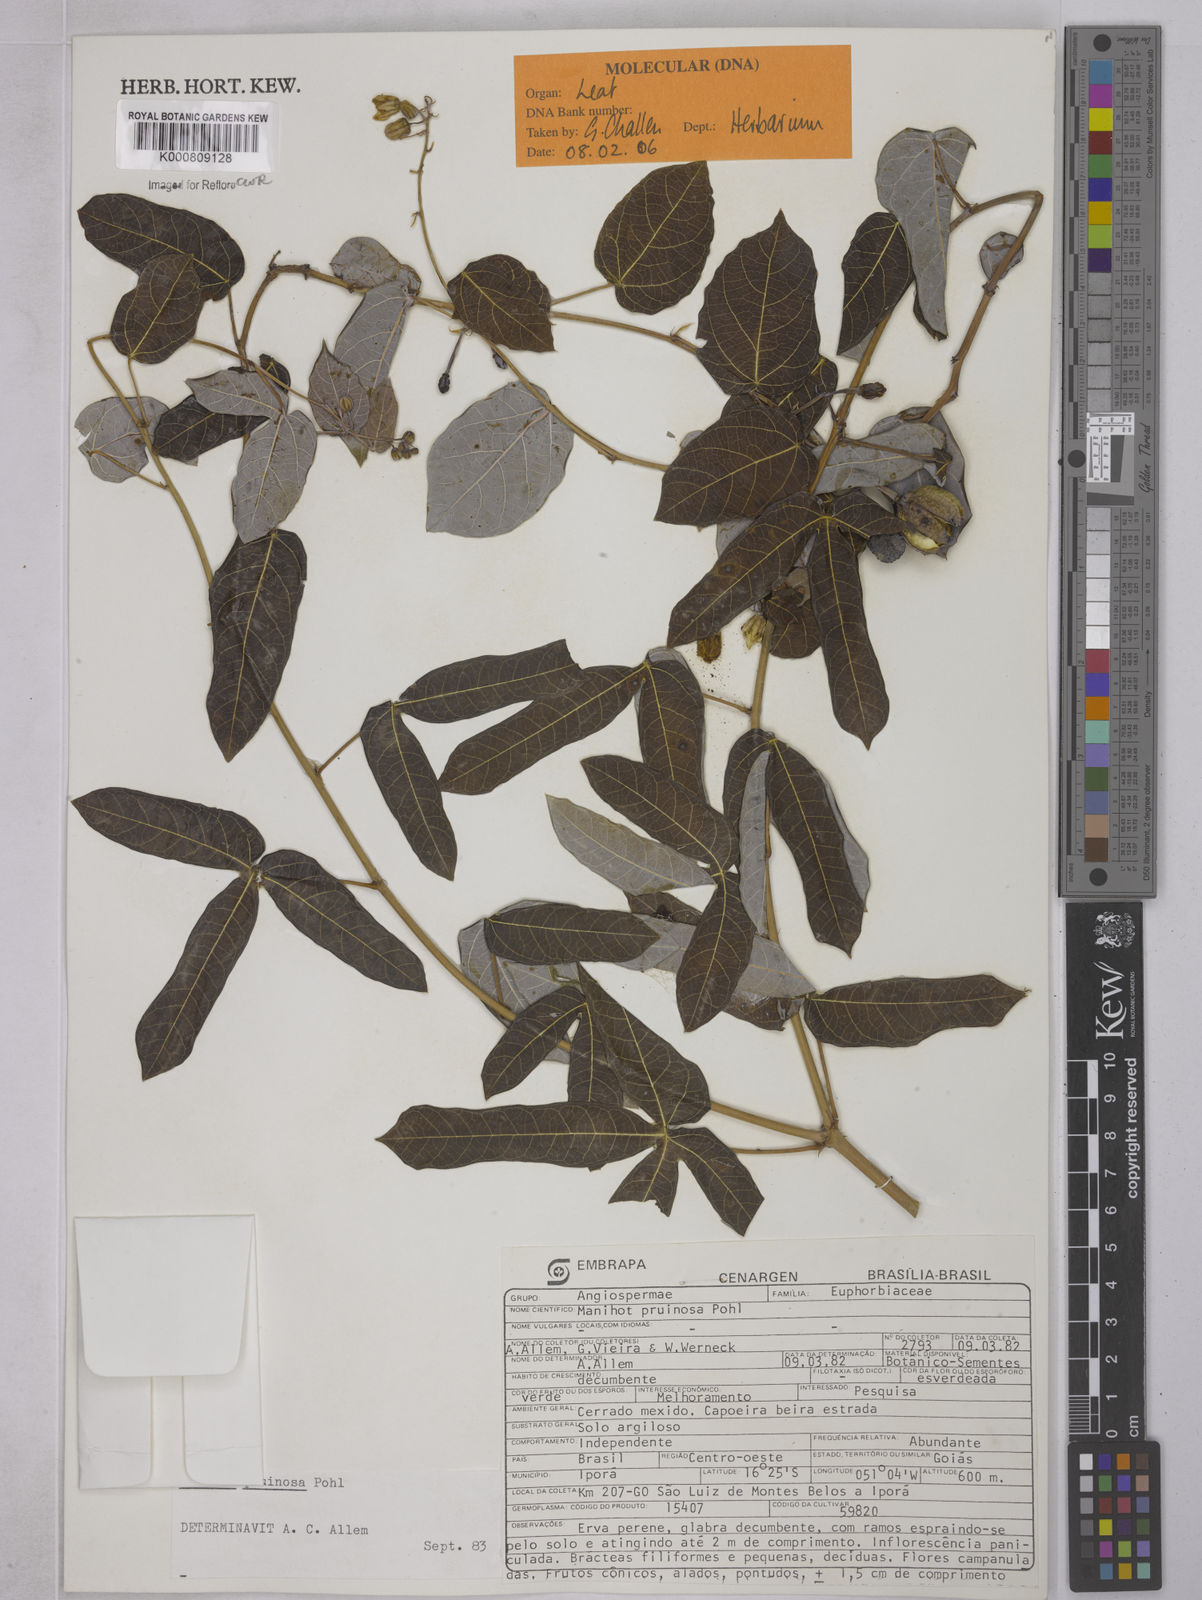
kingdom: Plantae
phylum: Tracheophyta
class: Magnoliopsida
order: Malpighiales
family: Euphorbiaceae
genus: Manihot
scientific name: Manihot pruinosa
